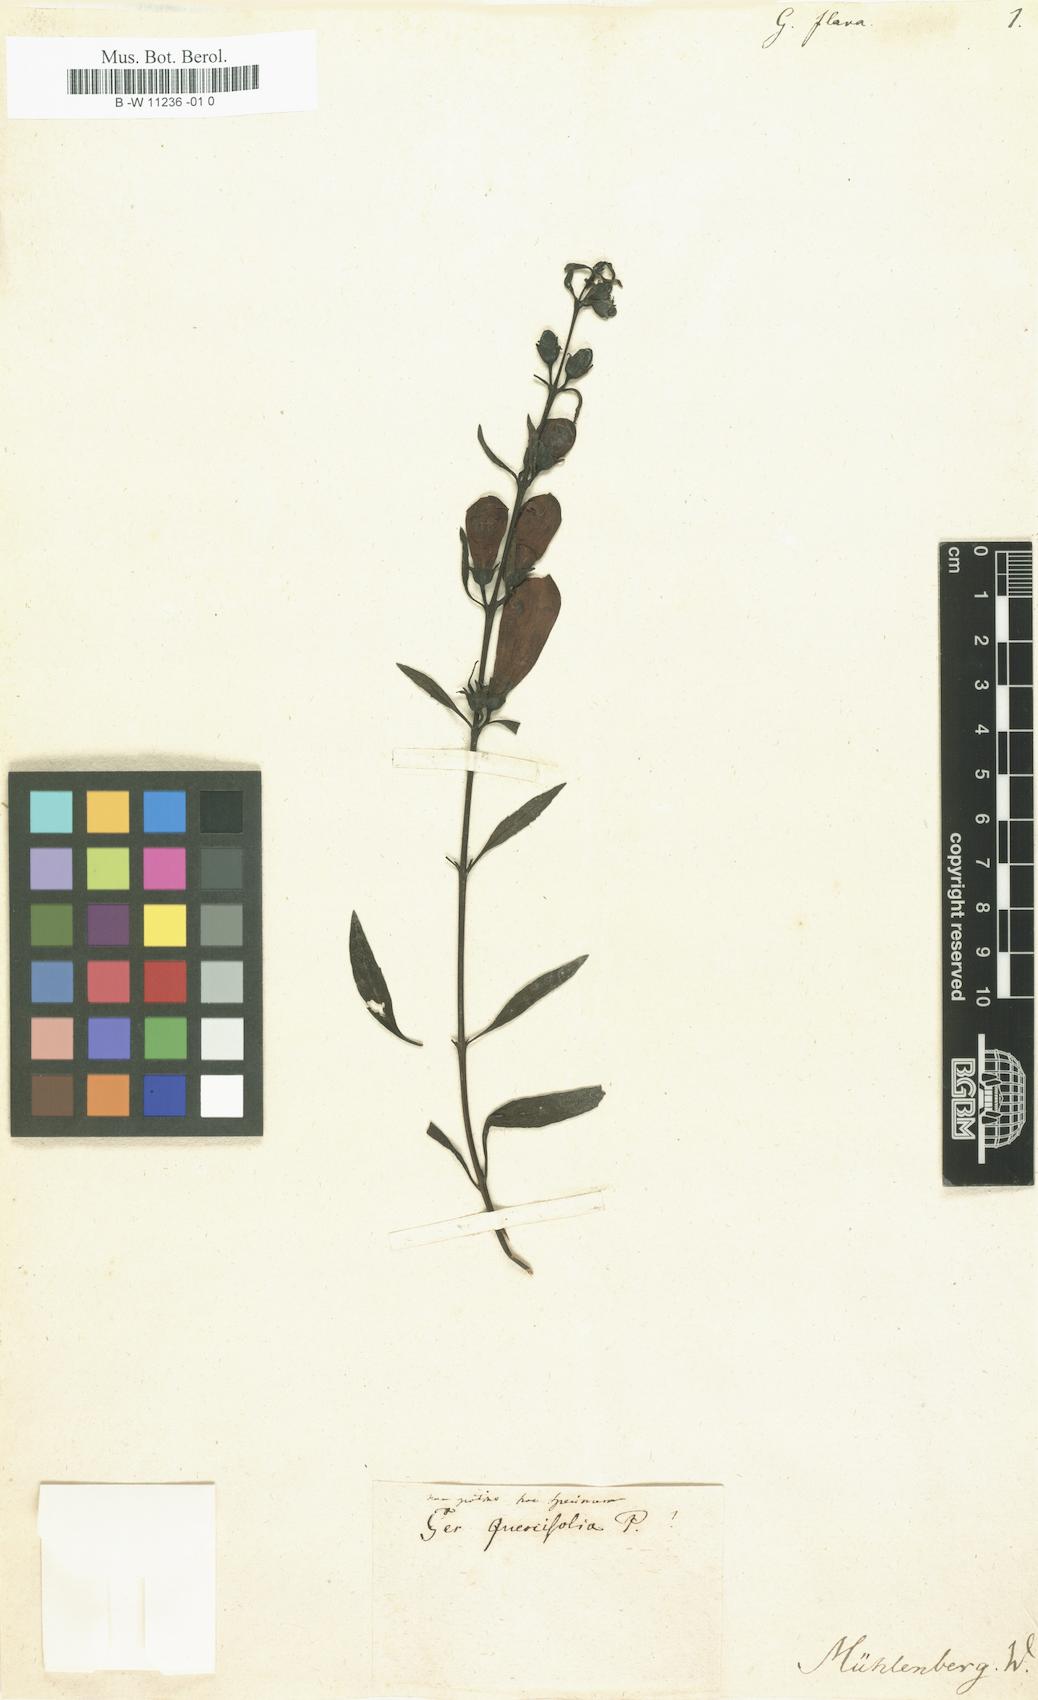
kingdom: Plantae
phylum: Tracheophyta
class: Magnoliopsida
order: Lamiales
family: Orobanchaceae
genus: Aureolaria
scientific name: Aureolaria flava
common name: Smooth false foxglove
